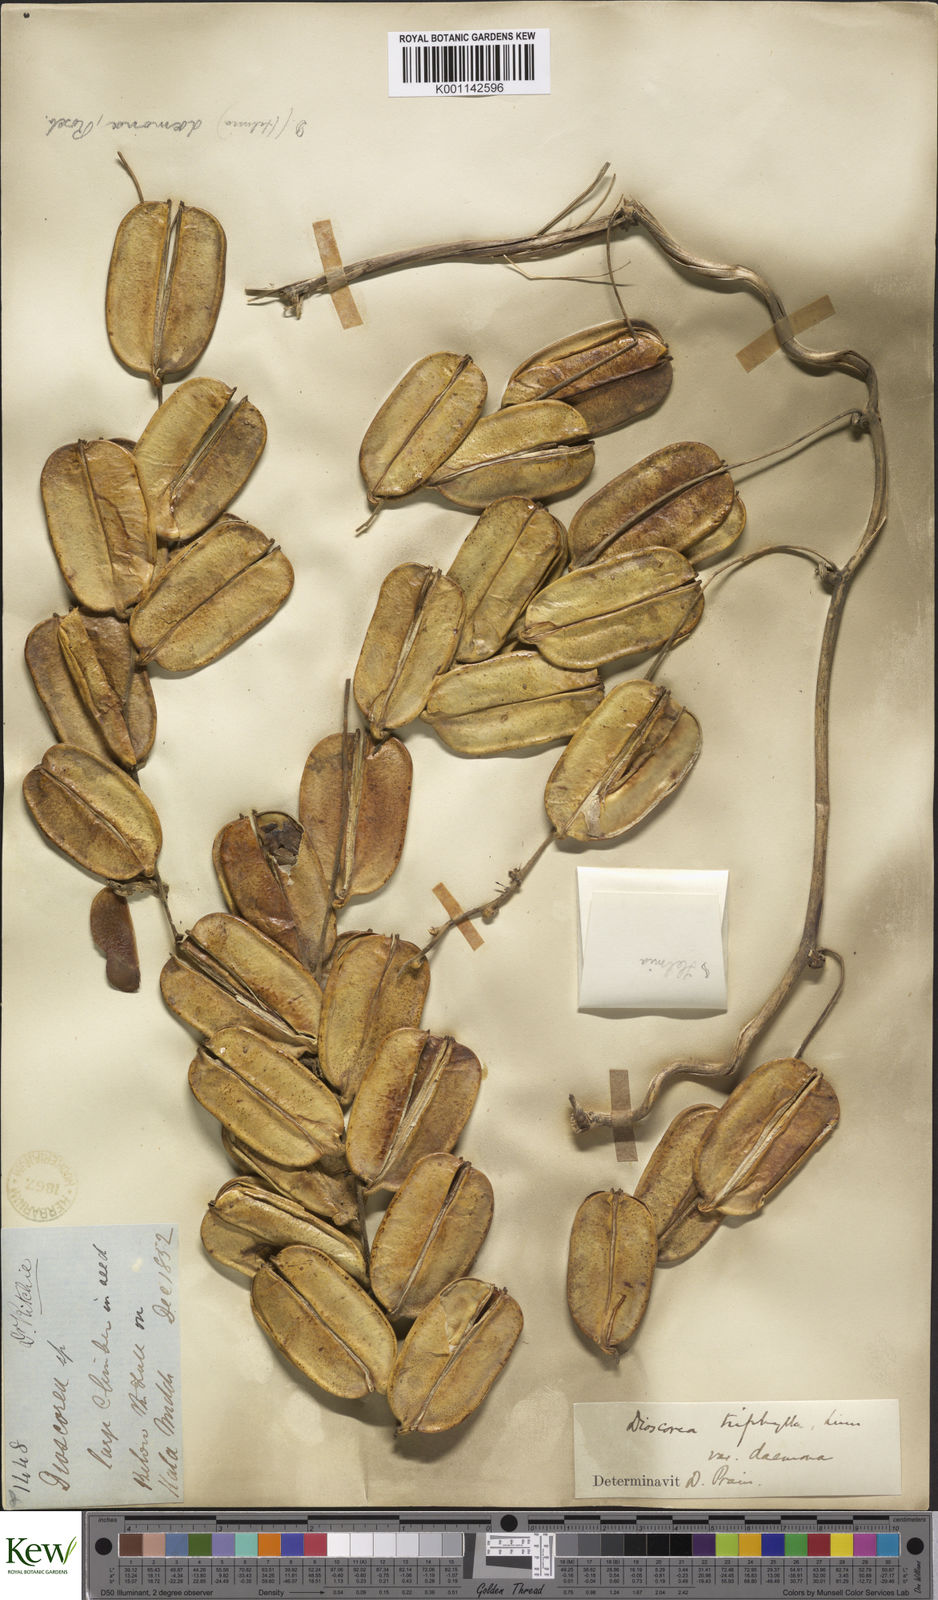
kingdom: Plantae
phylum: Tracheophyta
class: Liliopsida
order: Dioscoreales
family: Dioscoreaceae
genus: Dioscorea
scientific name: Dioscorea pentaphylla
